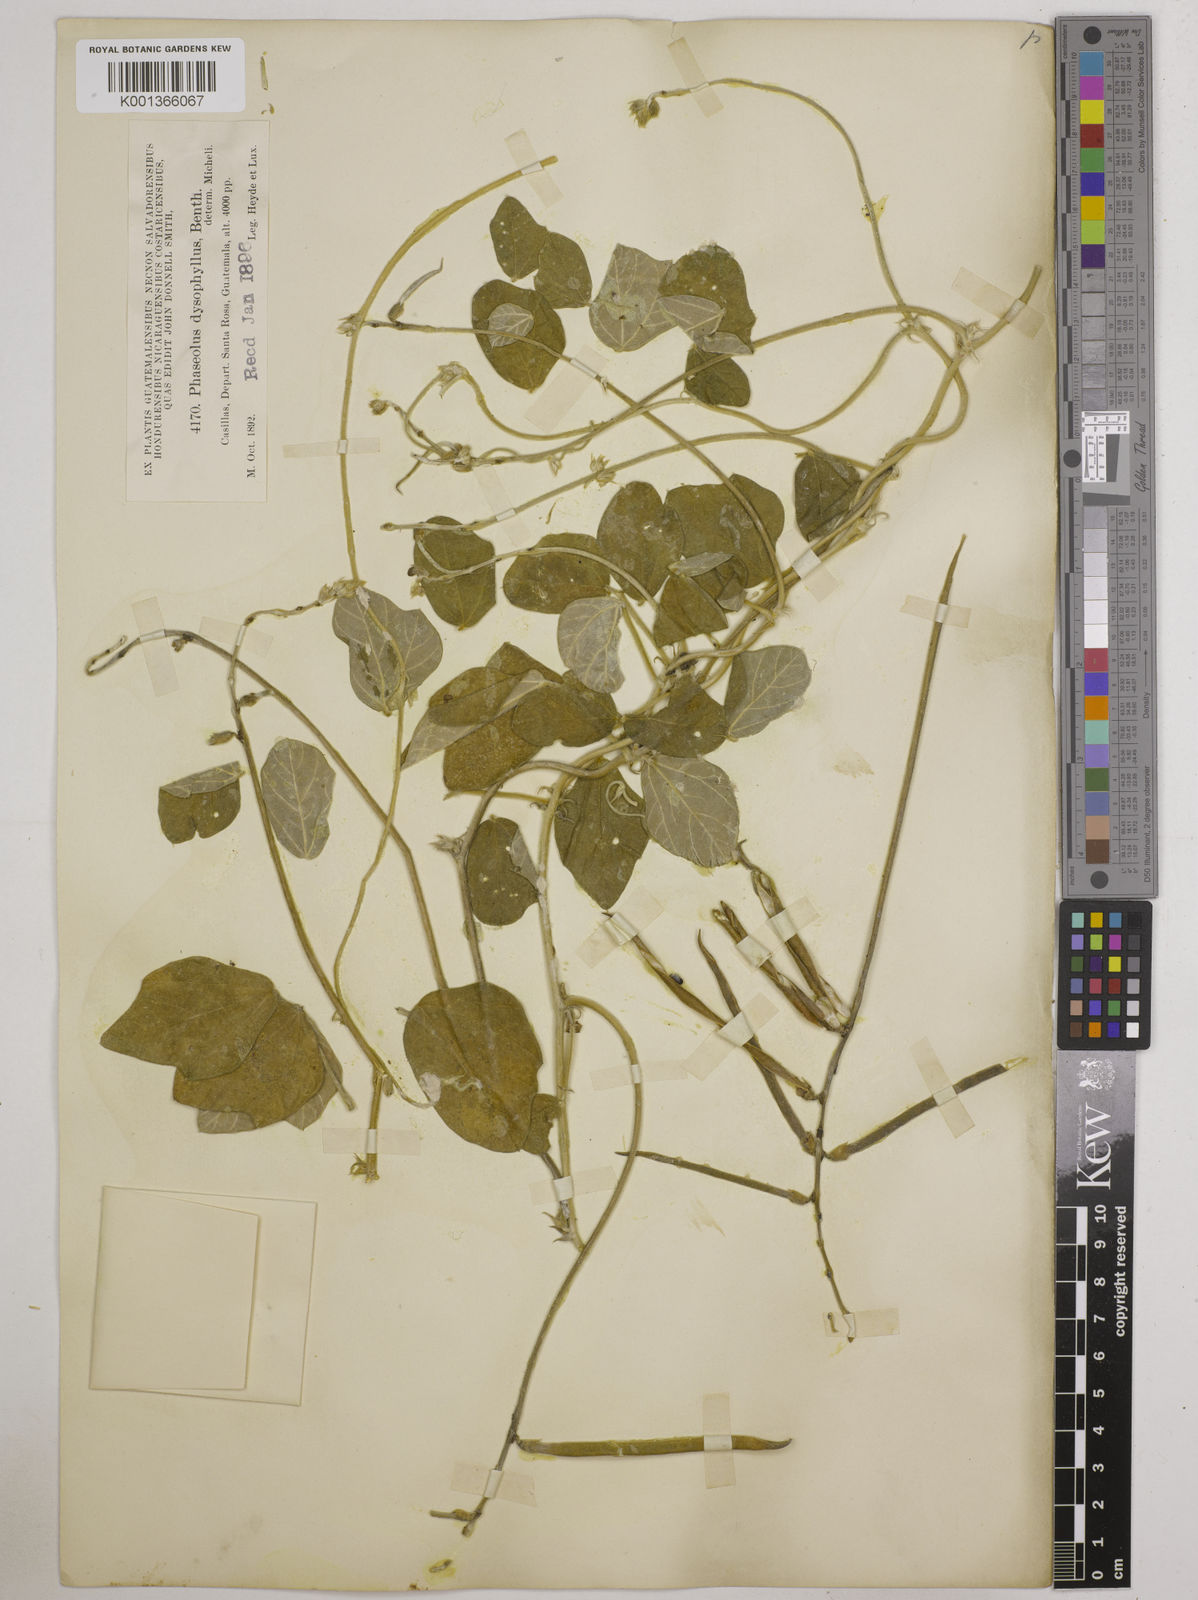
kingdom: Plantae
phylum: Tracheophyta
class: Magnoliopsida
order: Fabales
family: Fabaceae
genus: Macroptilium
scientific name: Macroptilium atropurpureum
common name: Purple bushbean
